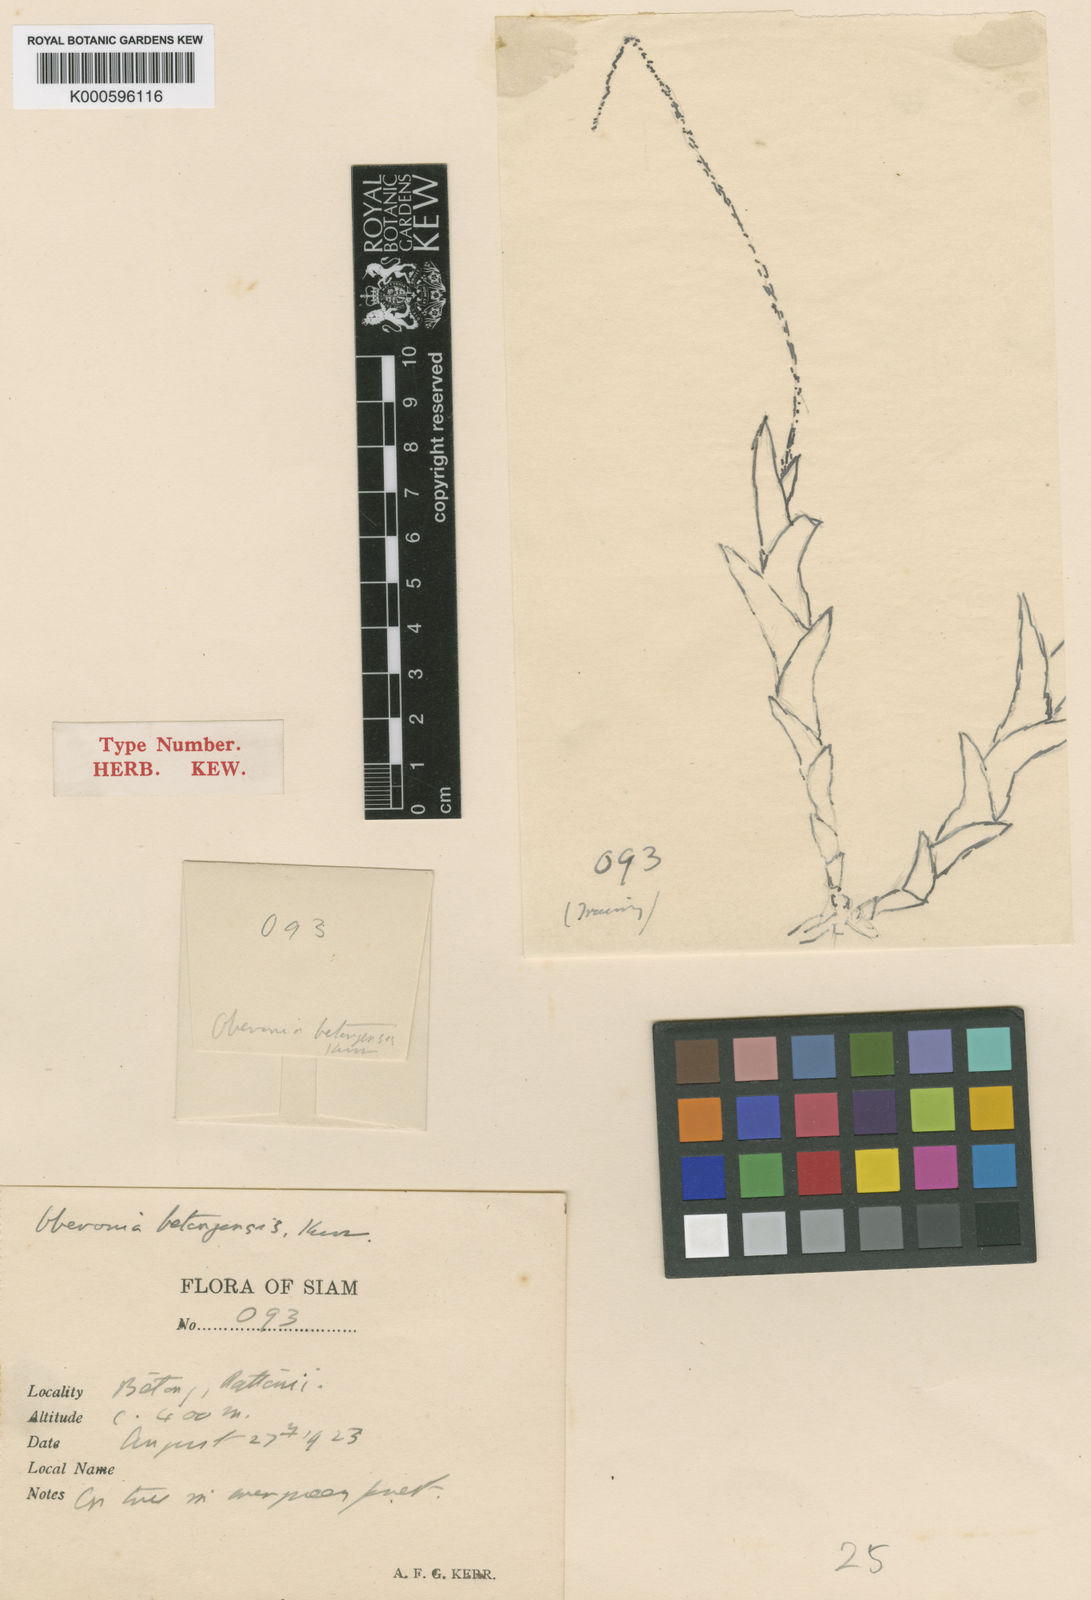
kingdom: Plantae
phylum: Tracheophyta
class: Liliopsida
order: Asparagales
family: Orchidaceae
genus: Oberonia
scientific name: Oberonia padangensis
